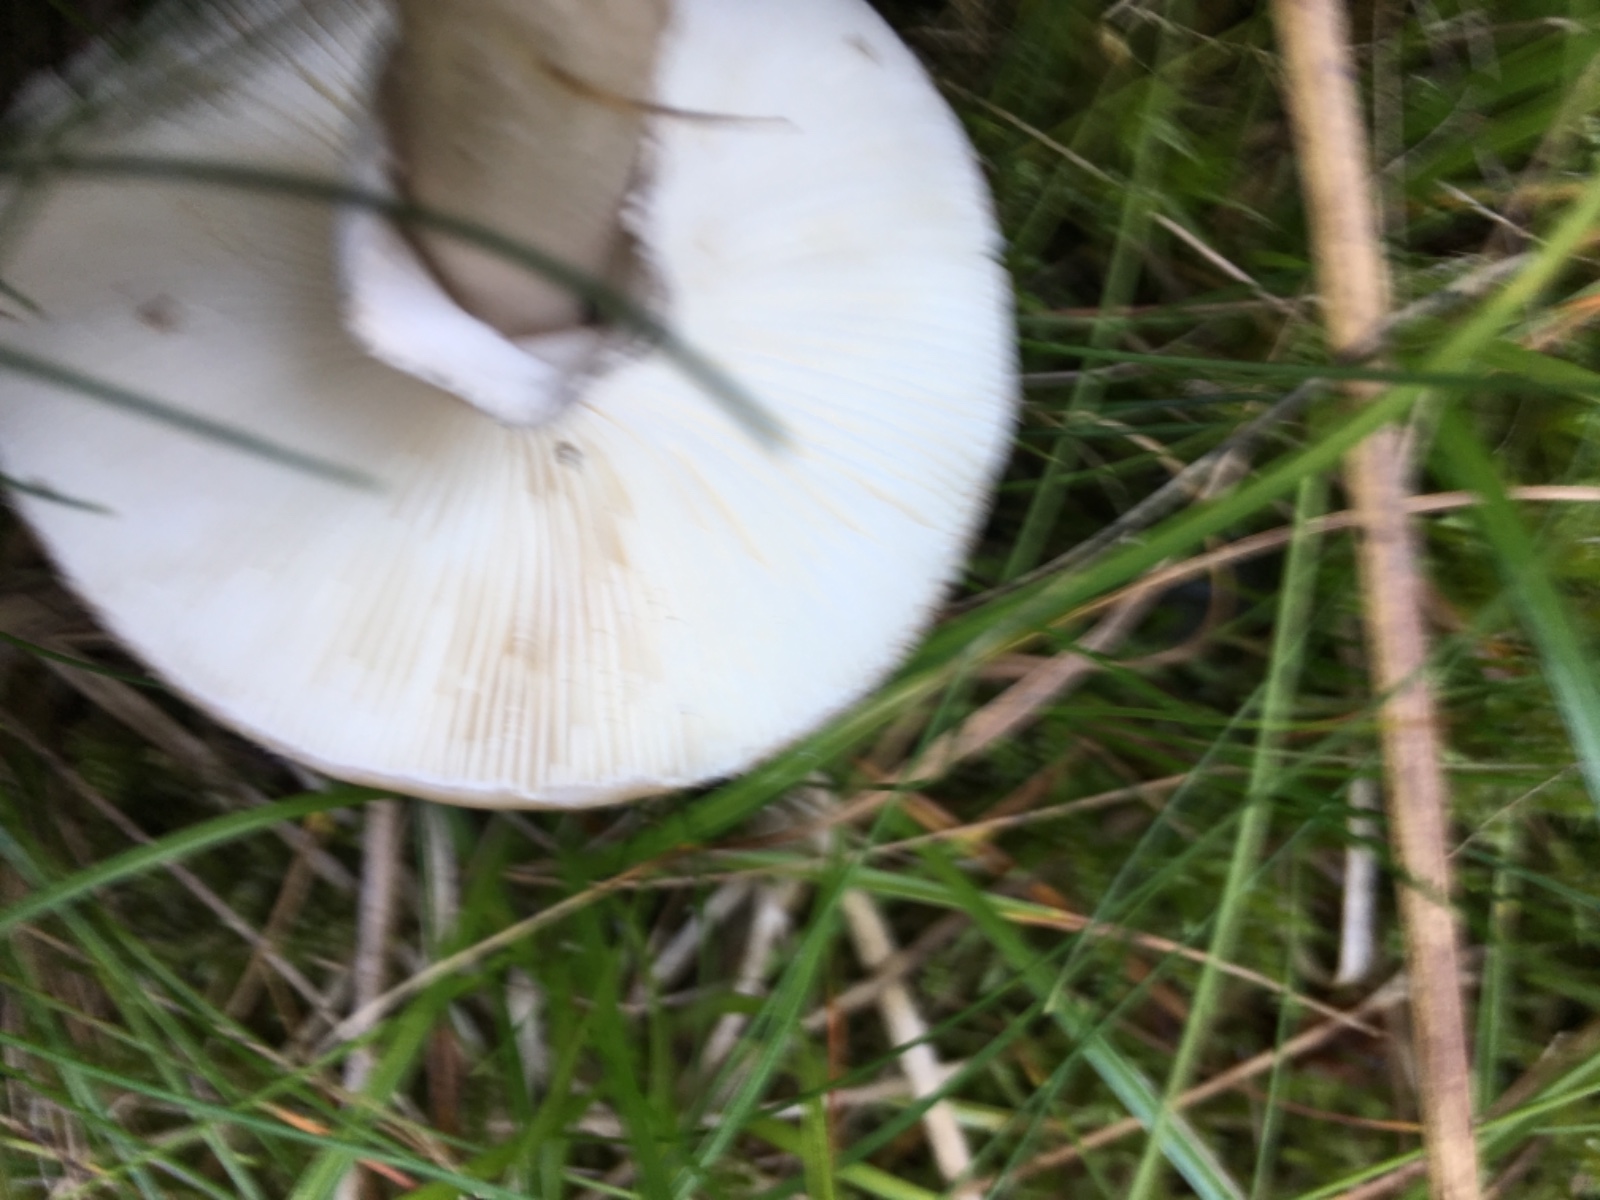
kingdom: Fungi
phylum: Basidiomycota
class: Agaricomycetes
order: Agaricales
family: Amanitaceae
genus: Amanita
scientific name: Amanita
